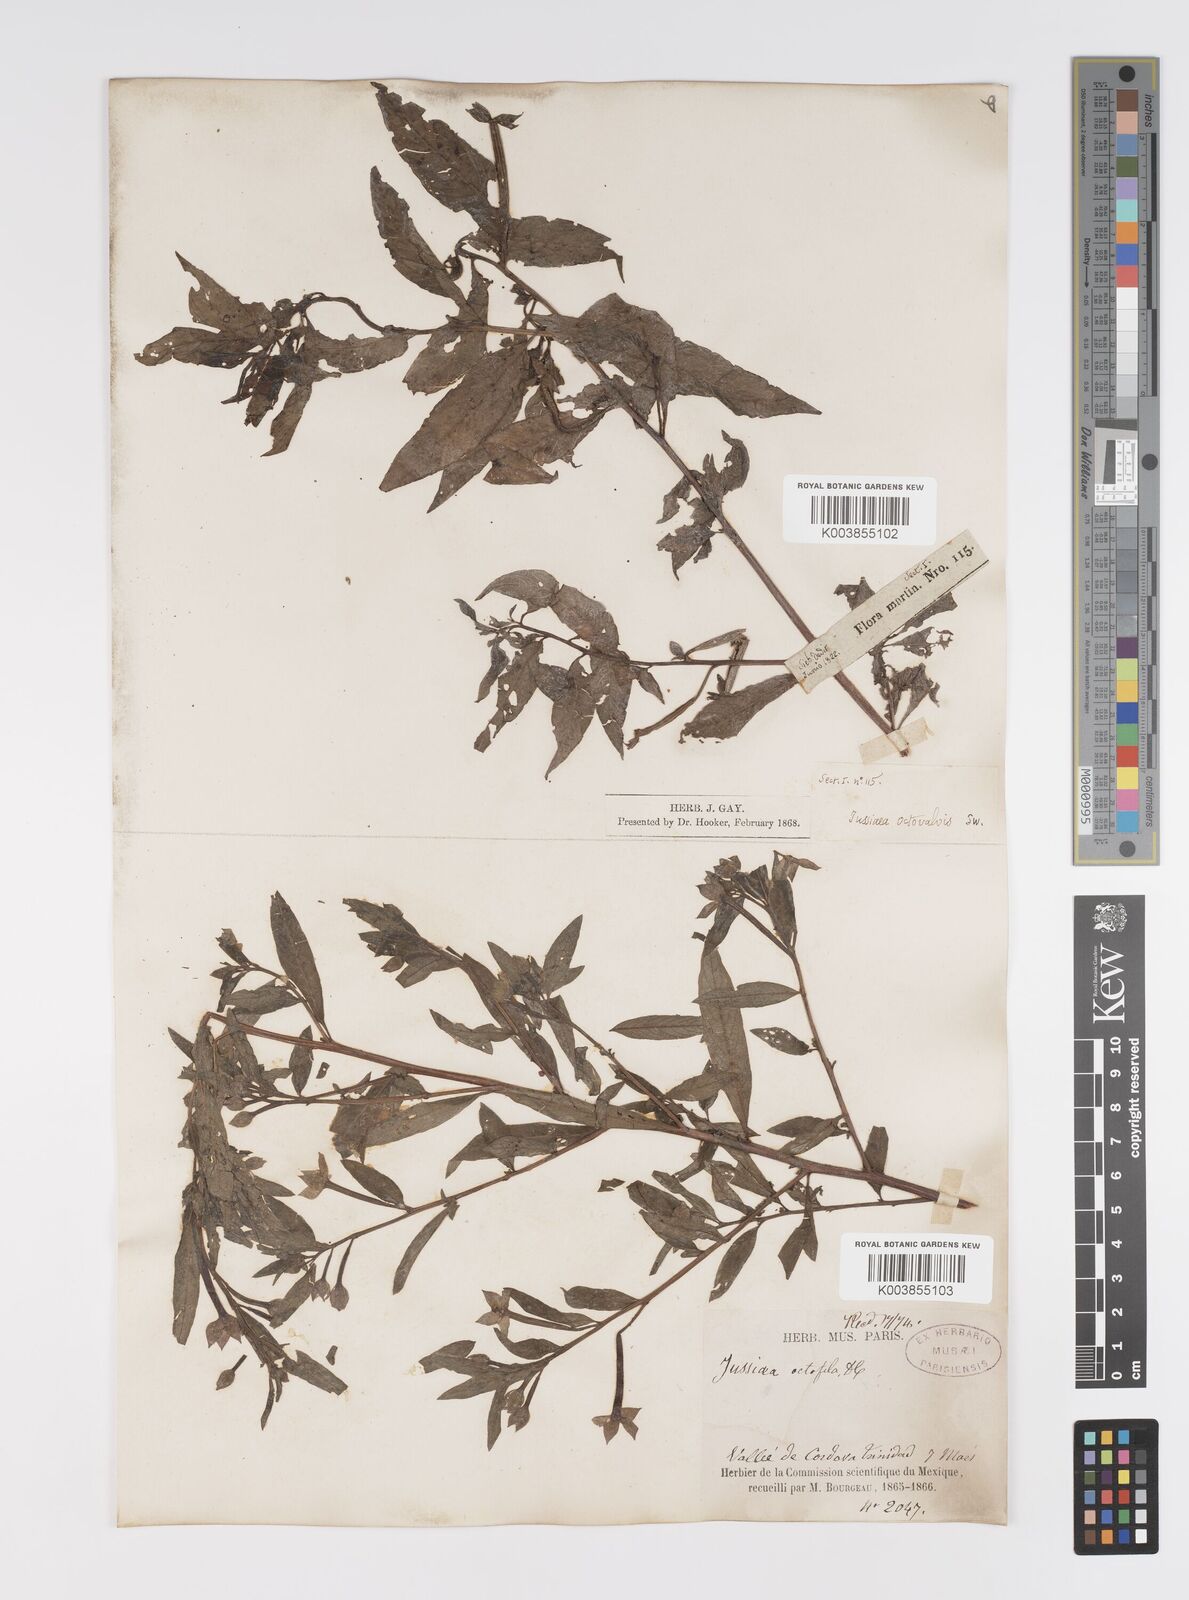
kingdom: Plantae
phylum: Tracheophyta
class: Magnoliopsida
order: Myrtales
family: Onagraceae
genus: Ludwigia
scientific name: Ludwigia octovalvis
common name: Water-primrose
